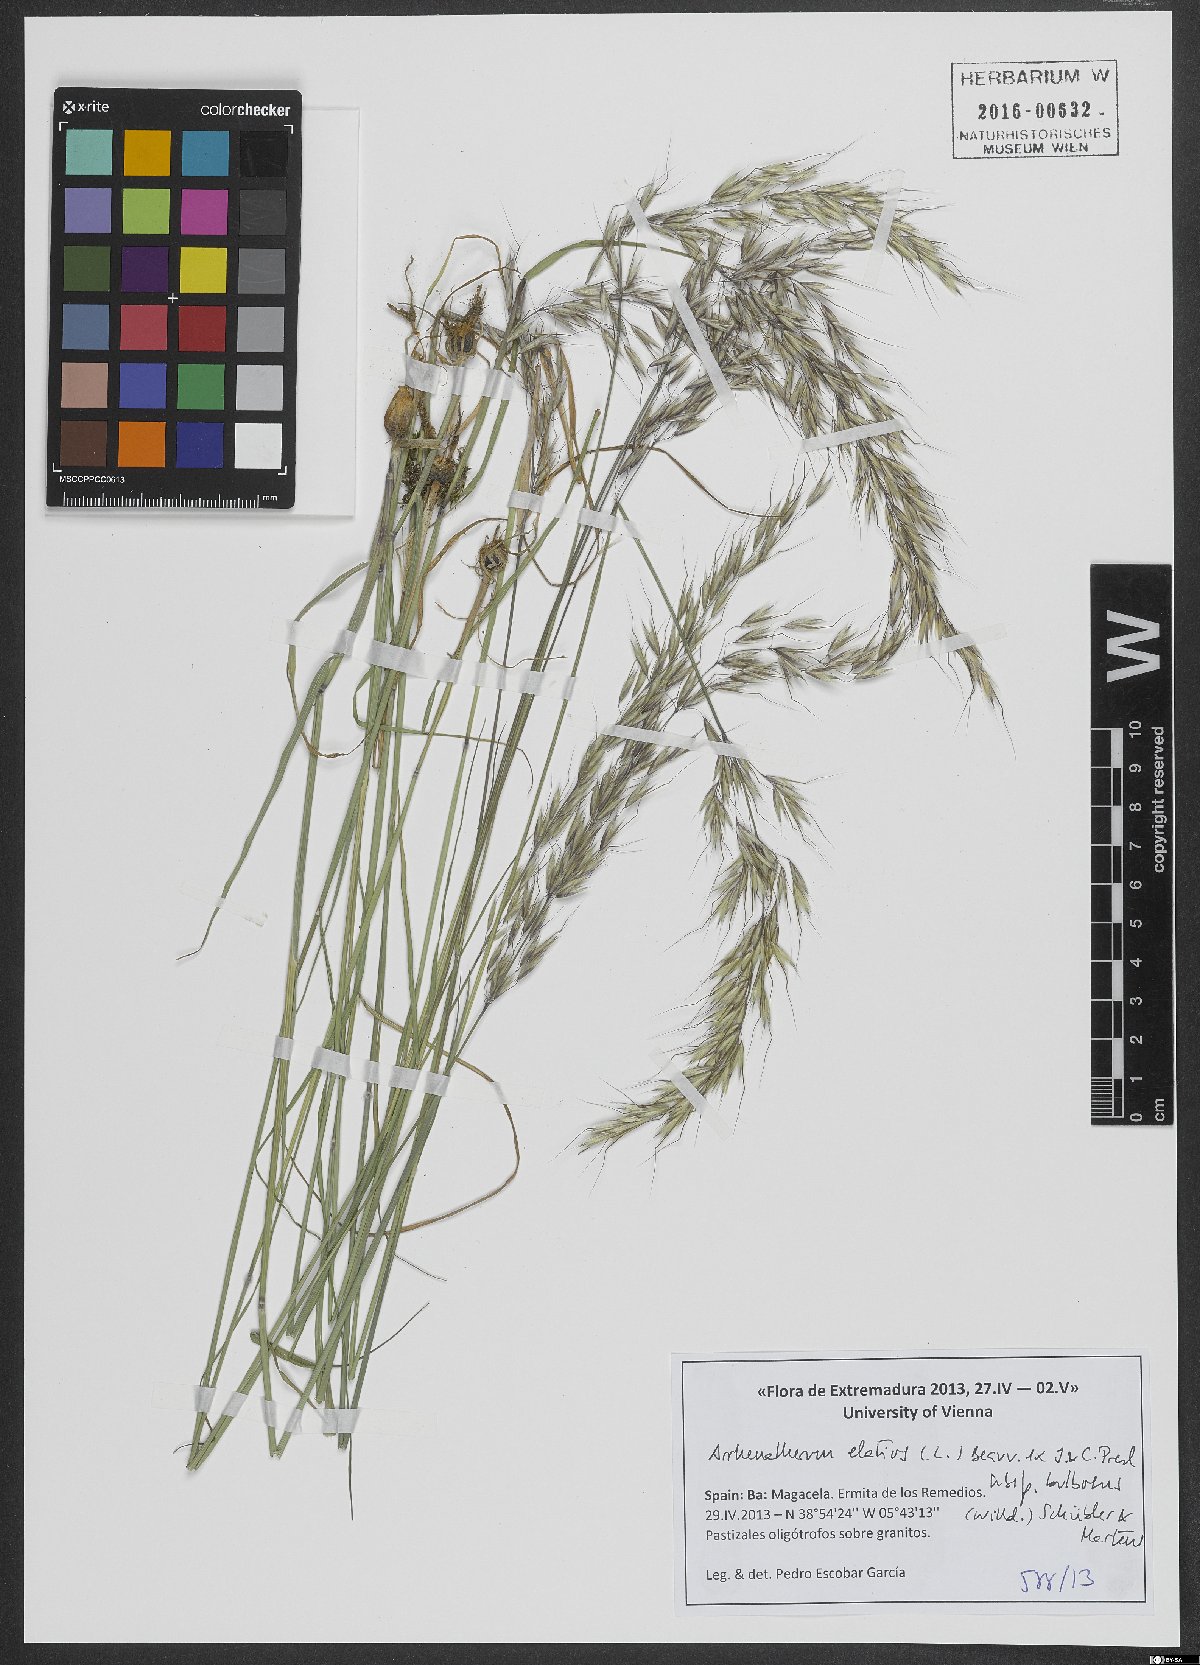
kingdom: Plantae
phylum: Tracheophyta
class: Liliopsida
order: Poales
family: Poaceae
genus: Arrhenatherum
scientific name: Arrhenatherum elatius
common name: Tall oatgrass
